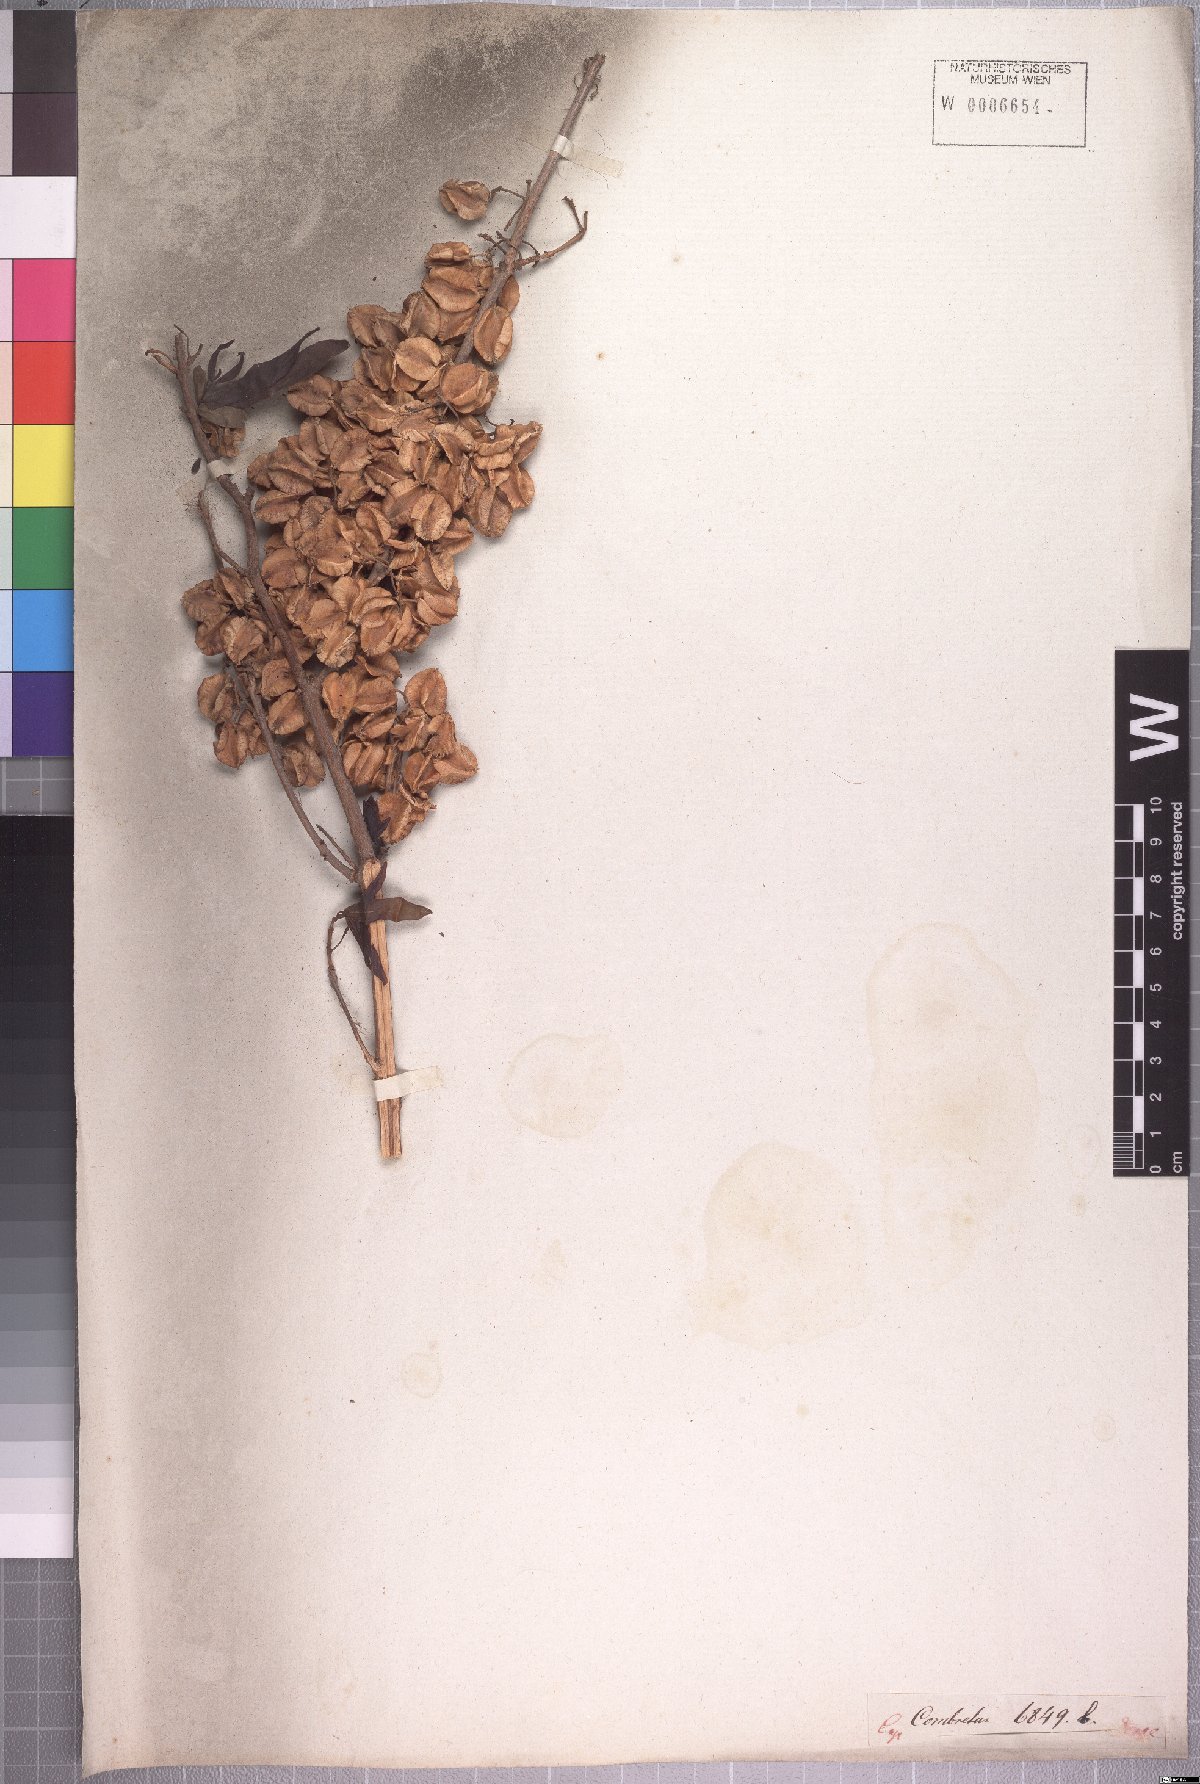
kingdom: Plantae
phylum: Tracheophyta
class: Magnoliopsida
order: Myrtales
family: Combretaceae
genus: Combretum
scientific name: Combretum caffrum
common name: Cape bushwillow
